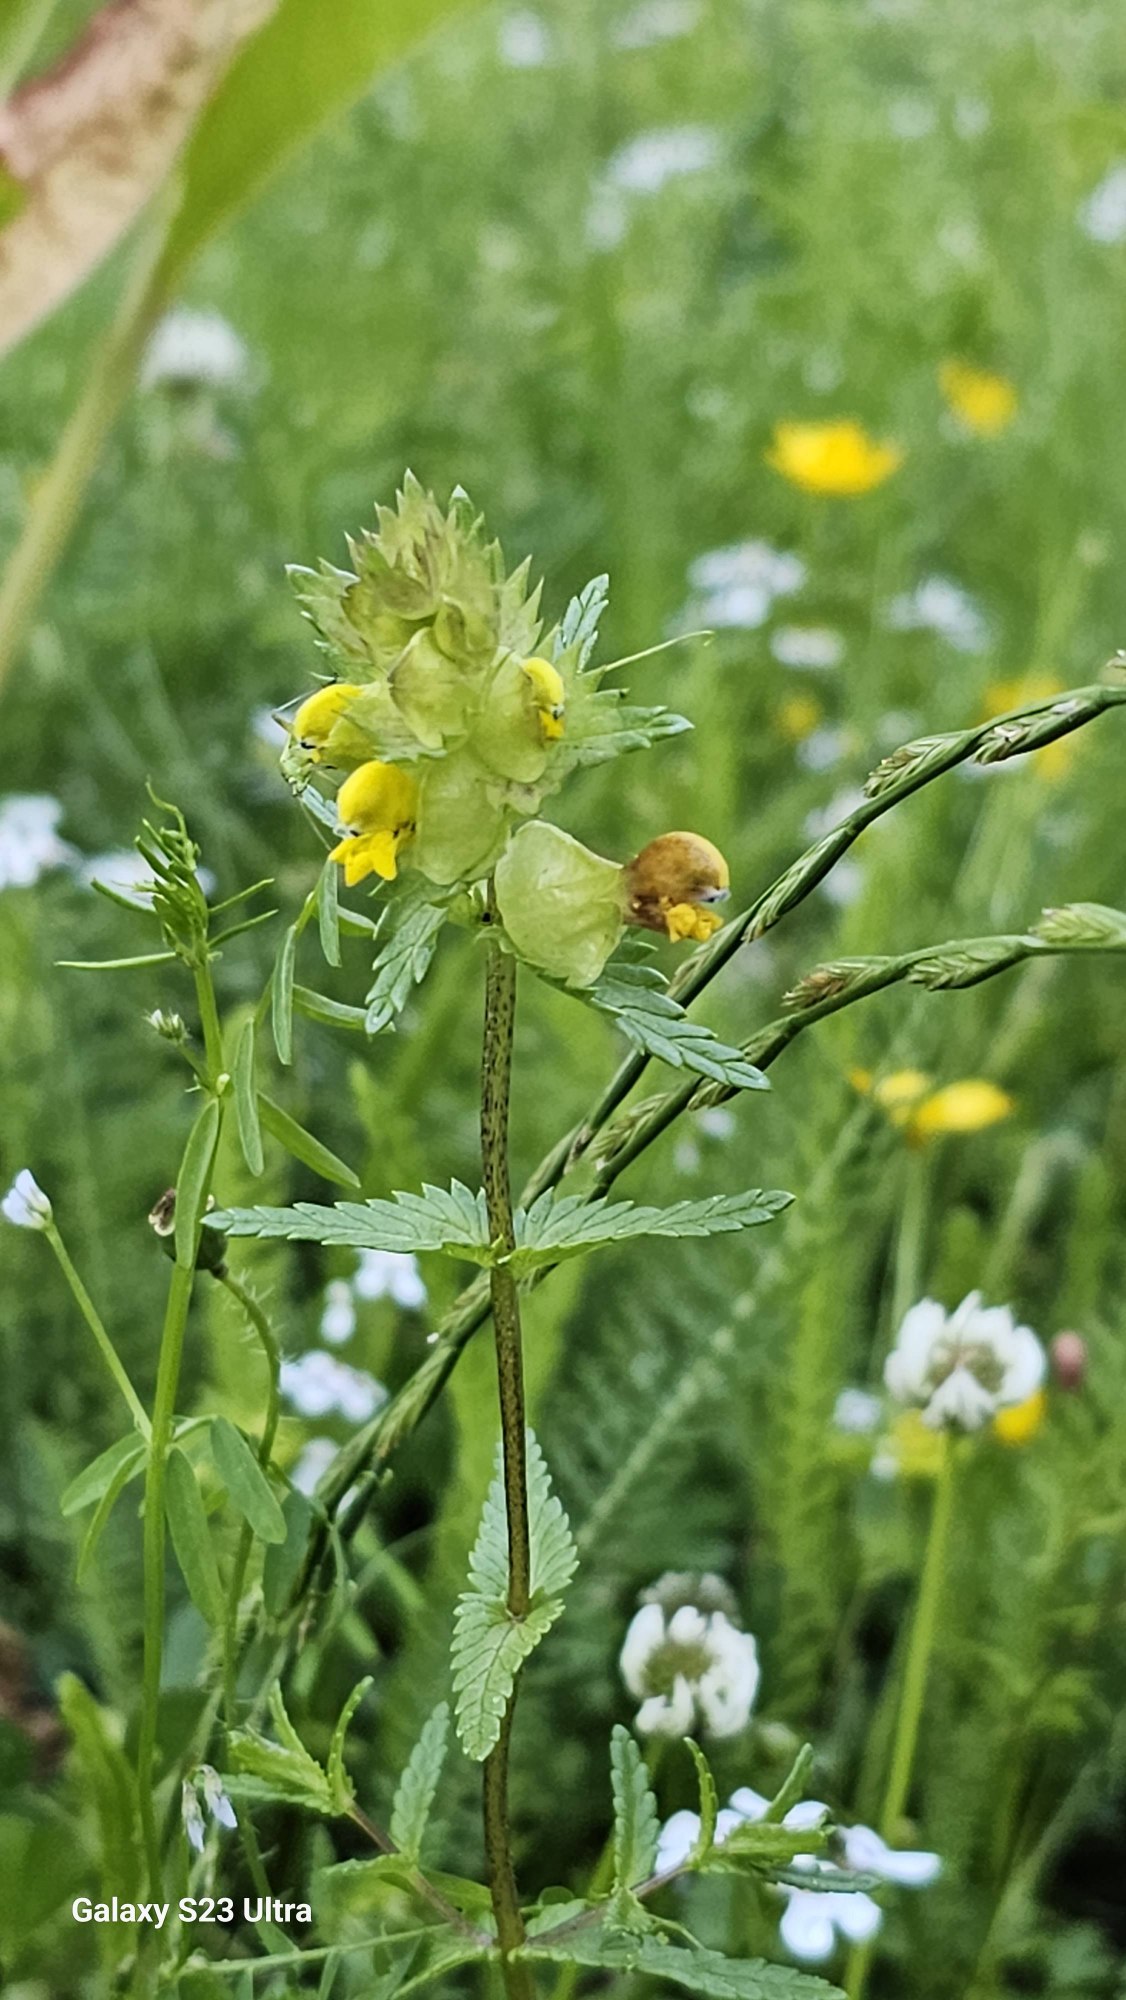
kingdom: Plantae
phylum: Tracheophyta
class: Magnoliopsida
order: Lamiales
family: Orobanchaceae
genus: Rhinanthus
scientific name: Rhinanthus minor
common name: Liden skjaller
